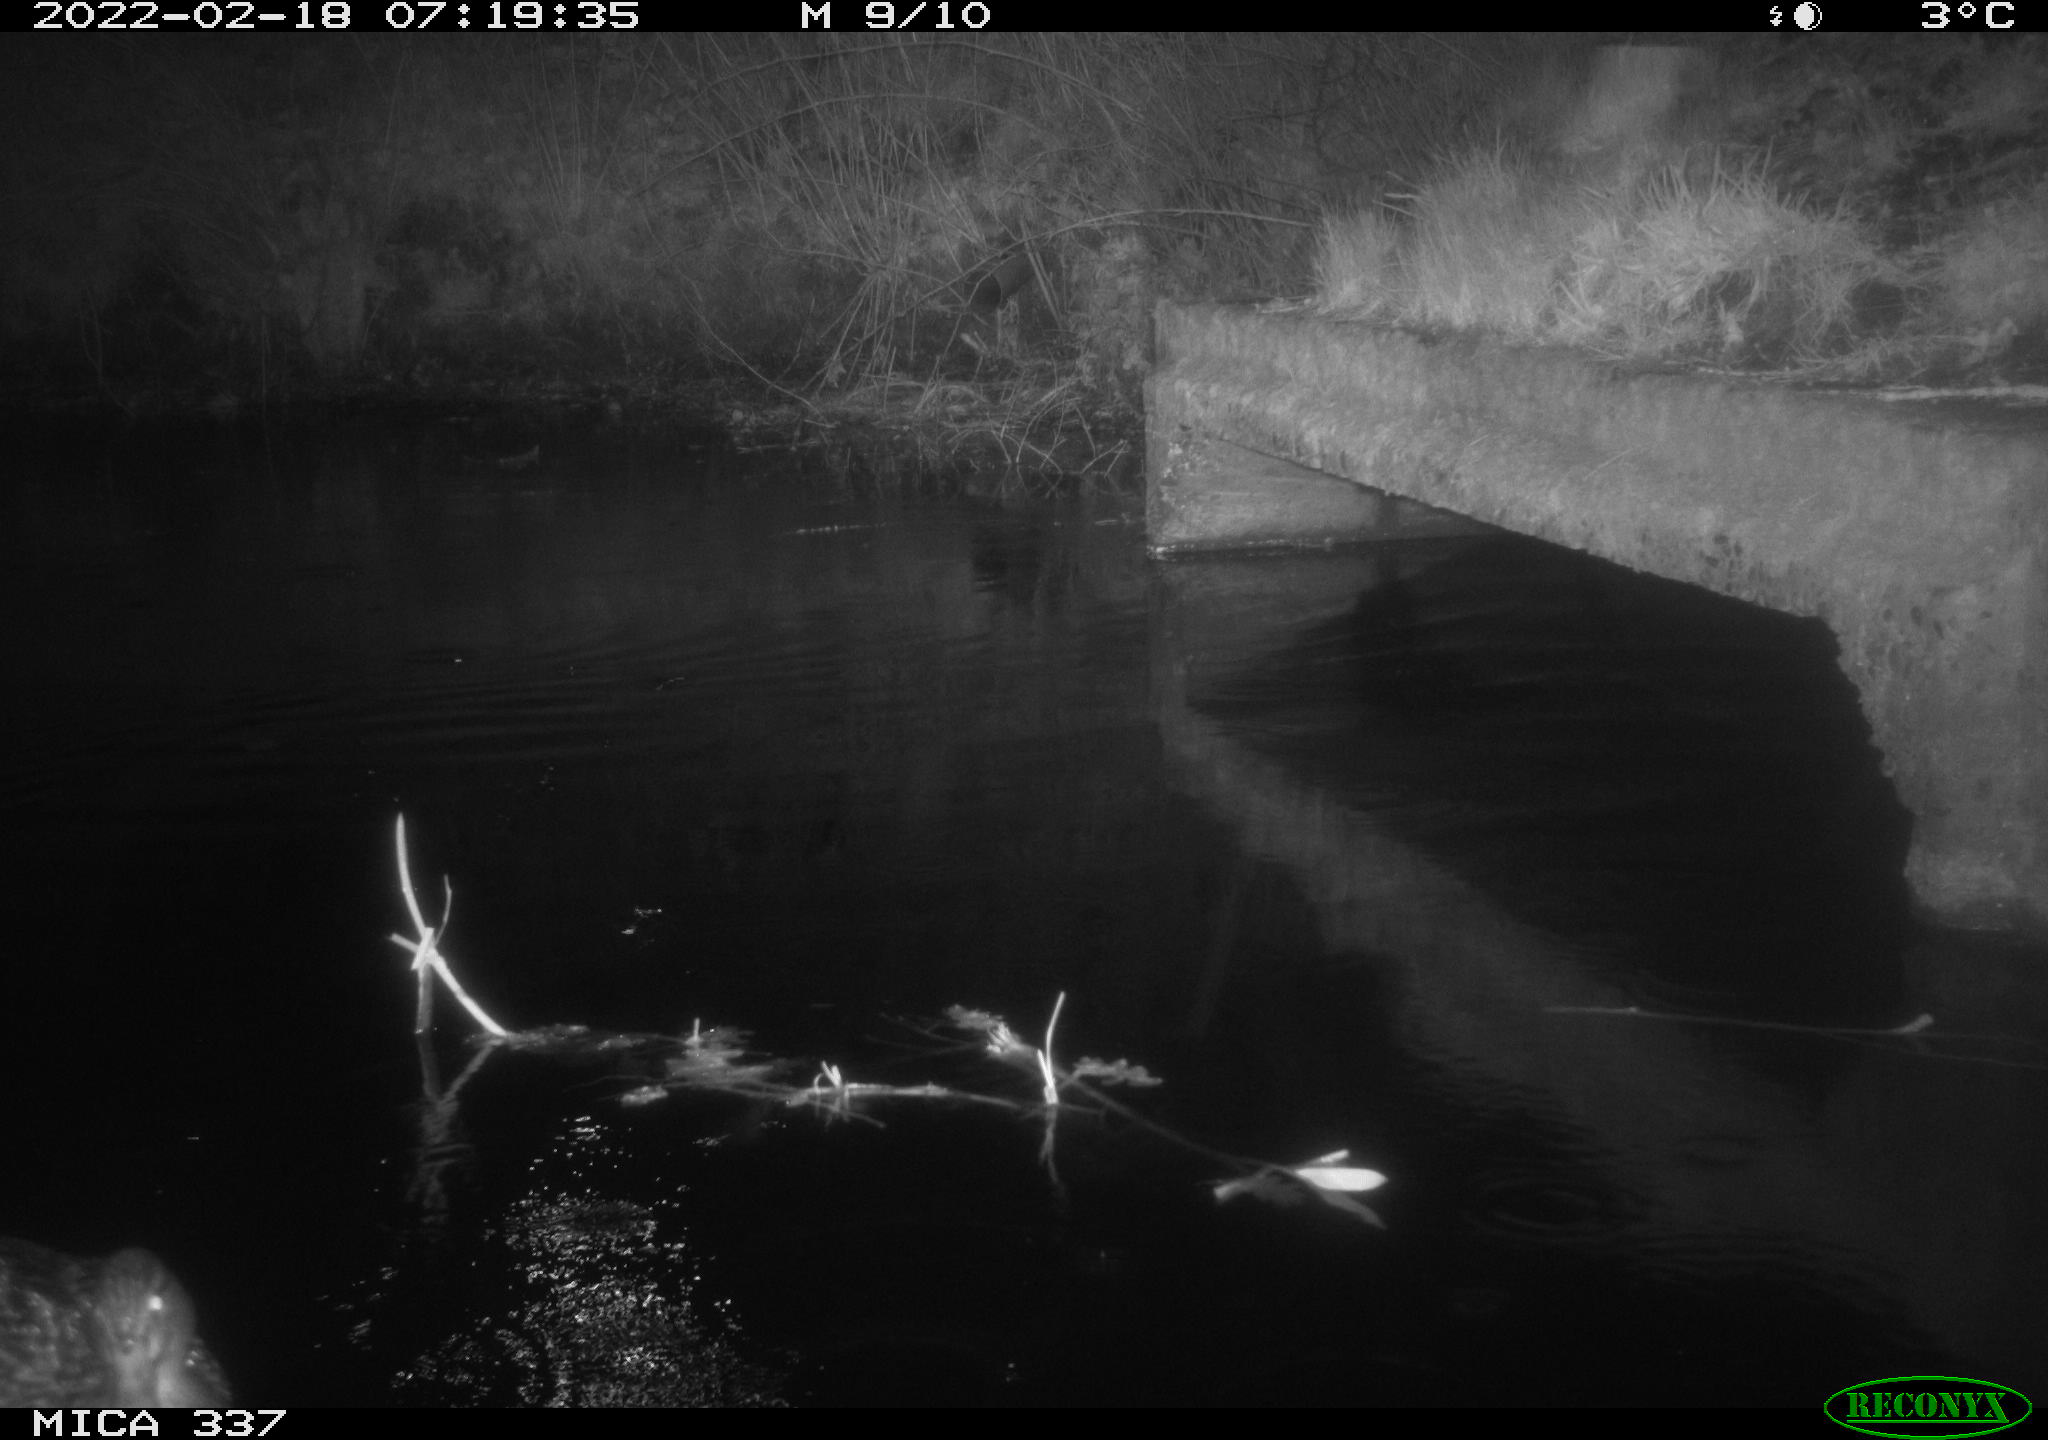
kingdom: Animalia
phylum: Chordata
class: Aves
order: Anseriformes
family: Anatidae
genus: Anas
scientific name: Anas platyrhynchos
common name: Mallard
